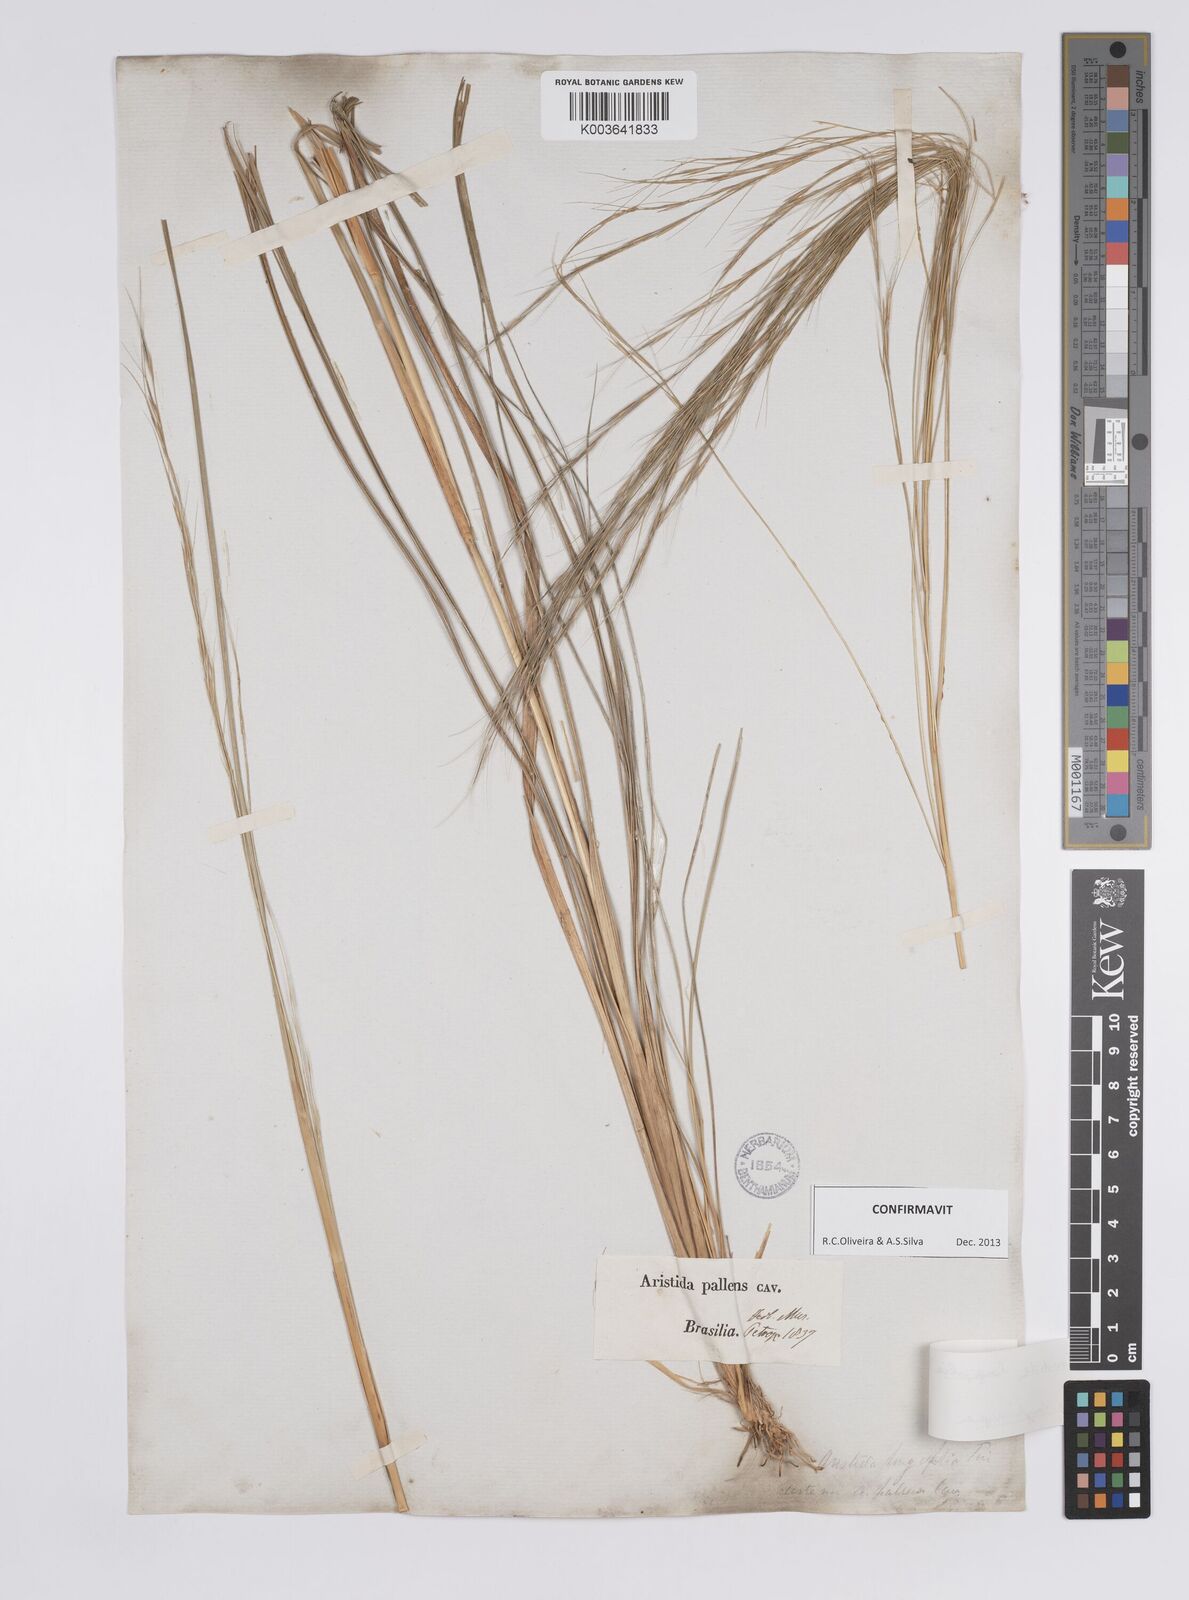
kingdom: Plantae
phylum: Tracheophyta
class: Liliopsida
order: Poales
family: Poaceae
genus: Aristida
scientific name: Aristida longifolia
